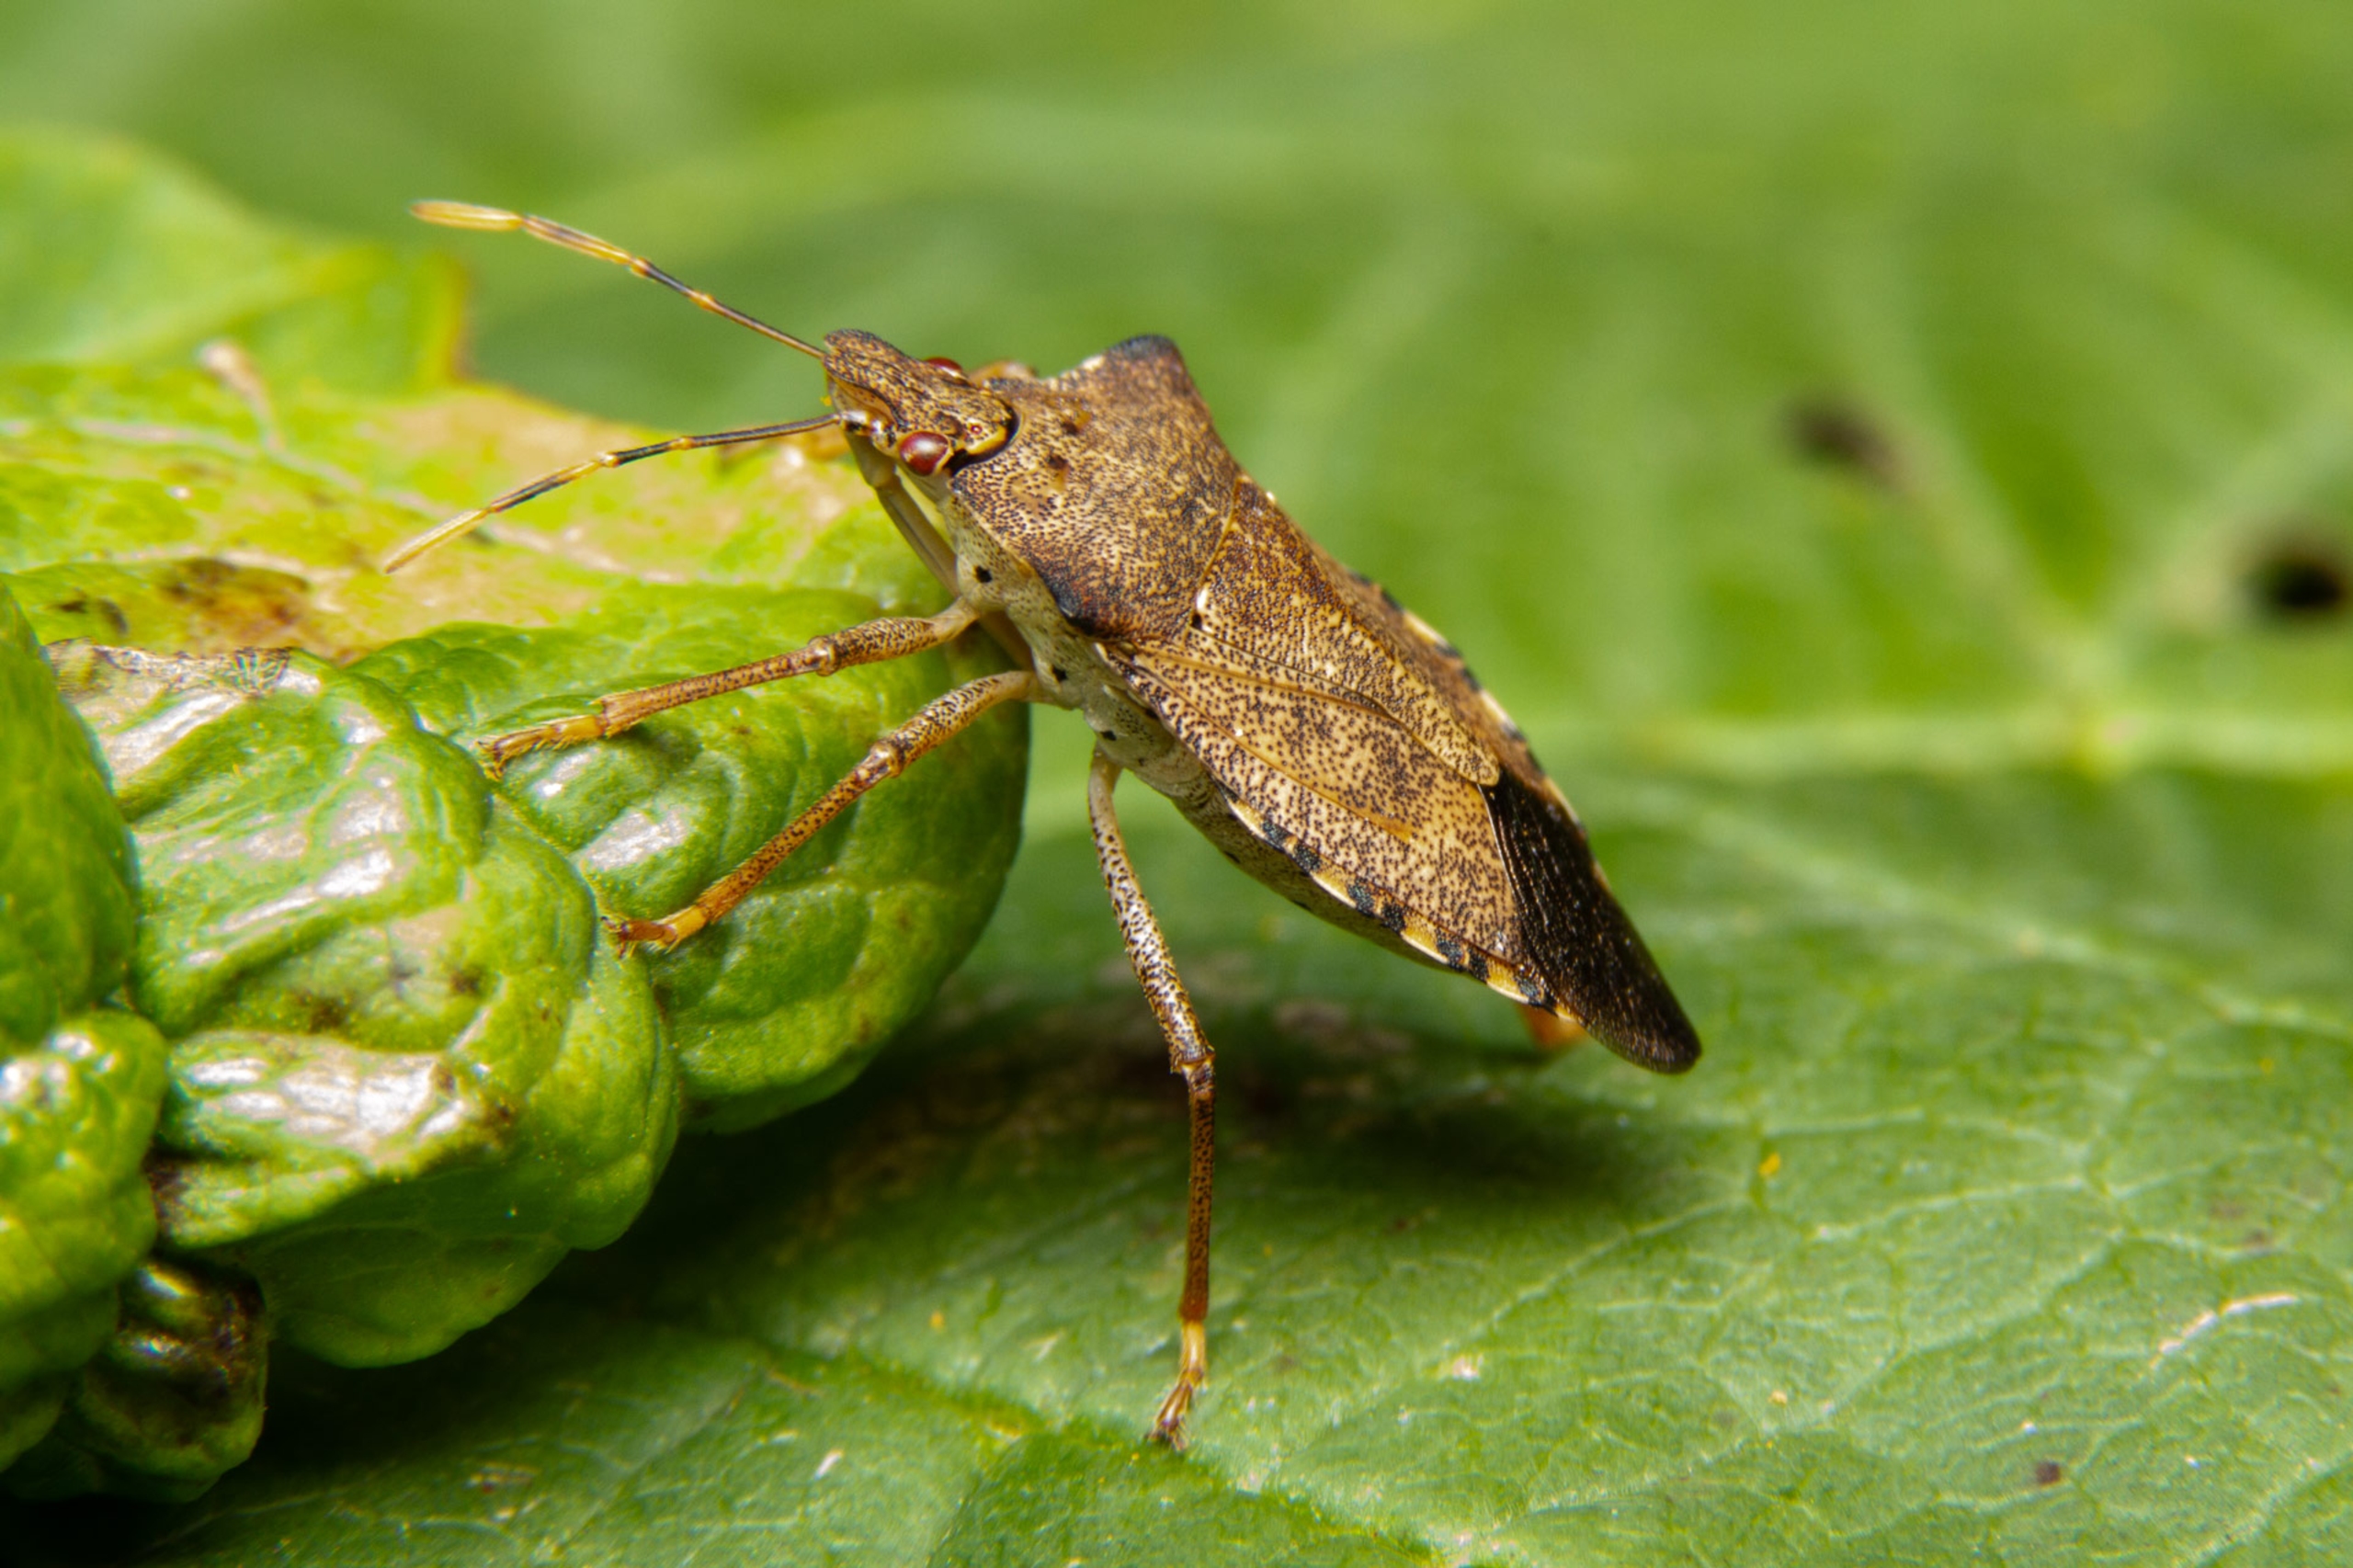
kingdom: Animalia
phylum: Arthropoda
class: Insecta
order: Hemiptera
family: Pentatomidae
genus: Arma
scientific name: Arma custos
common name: Kustodetæge
